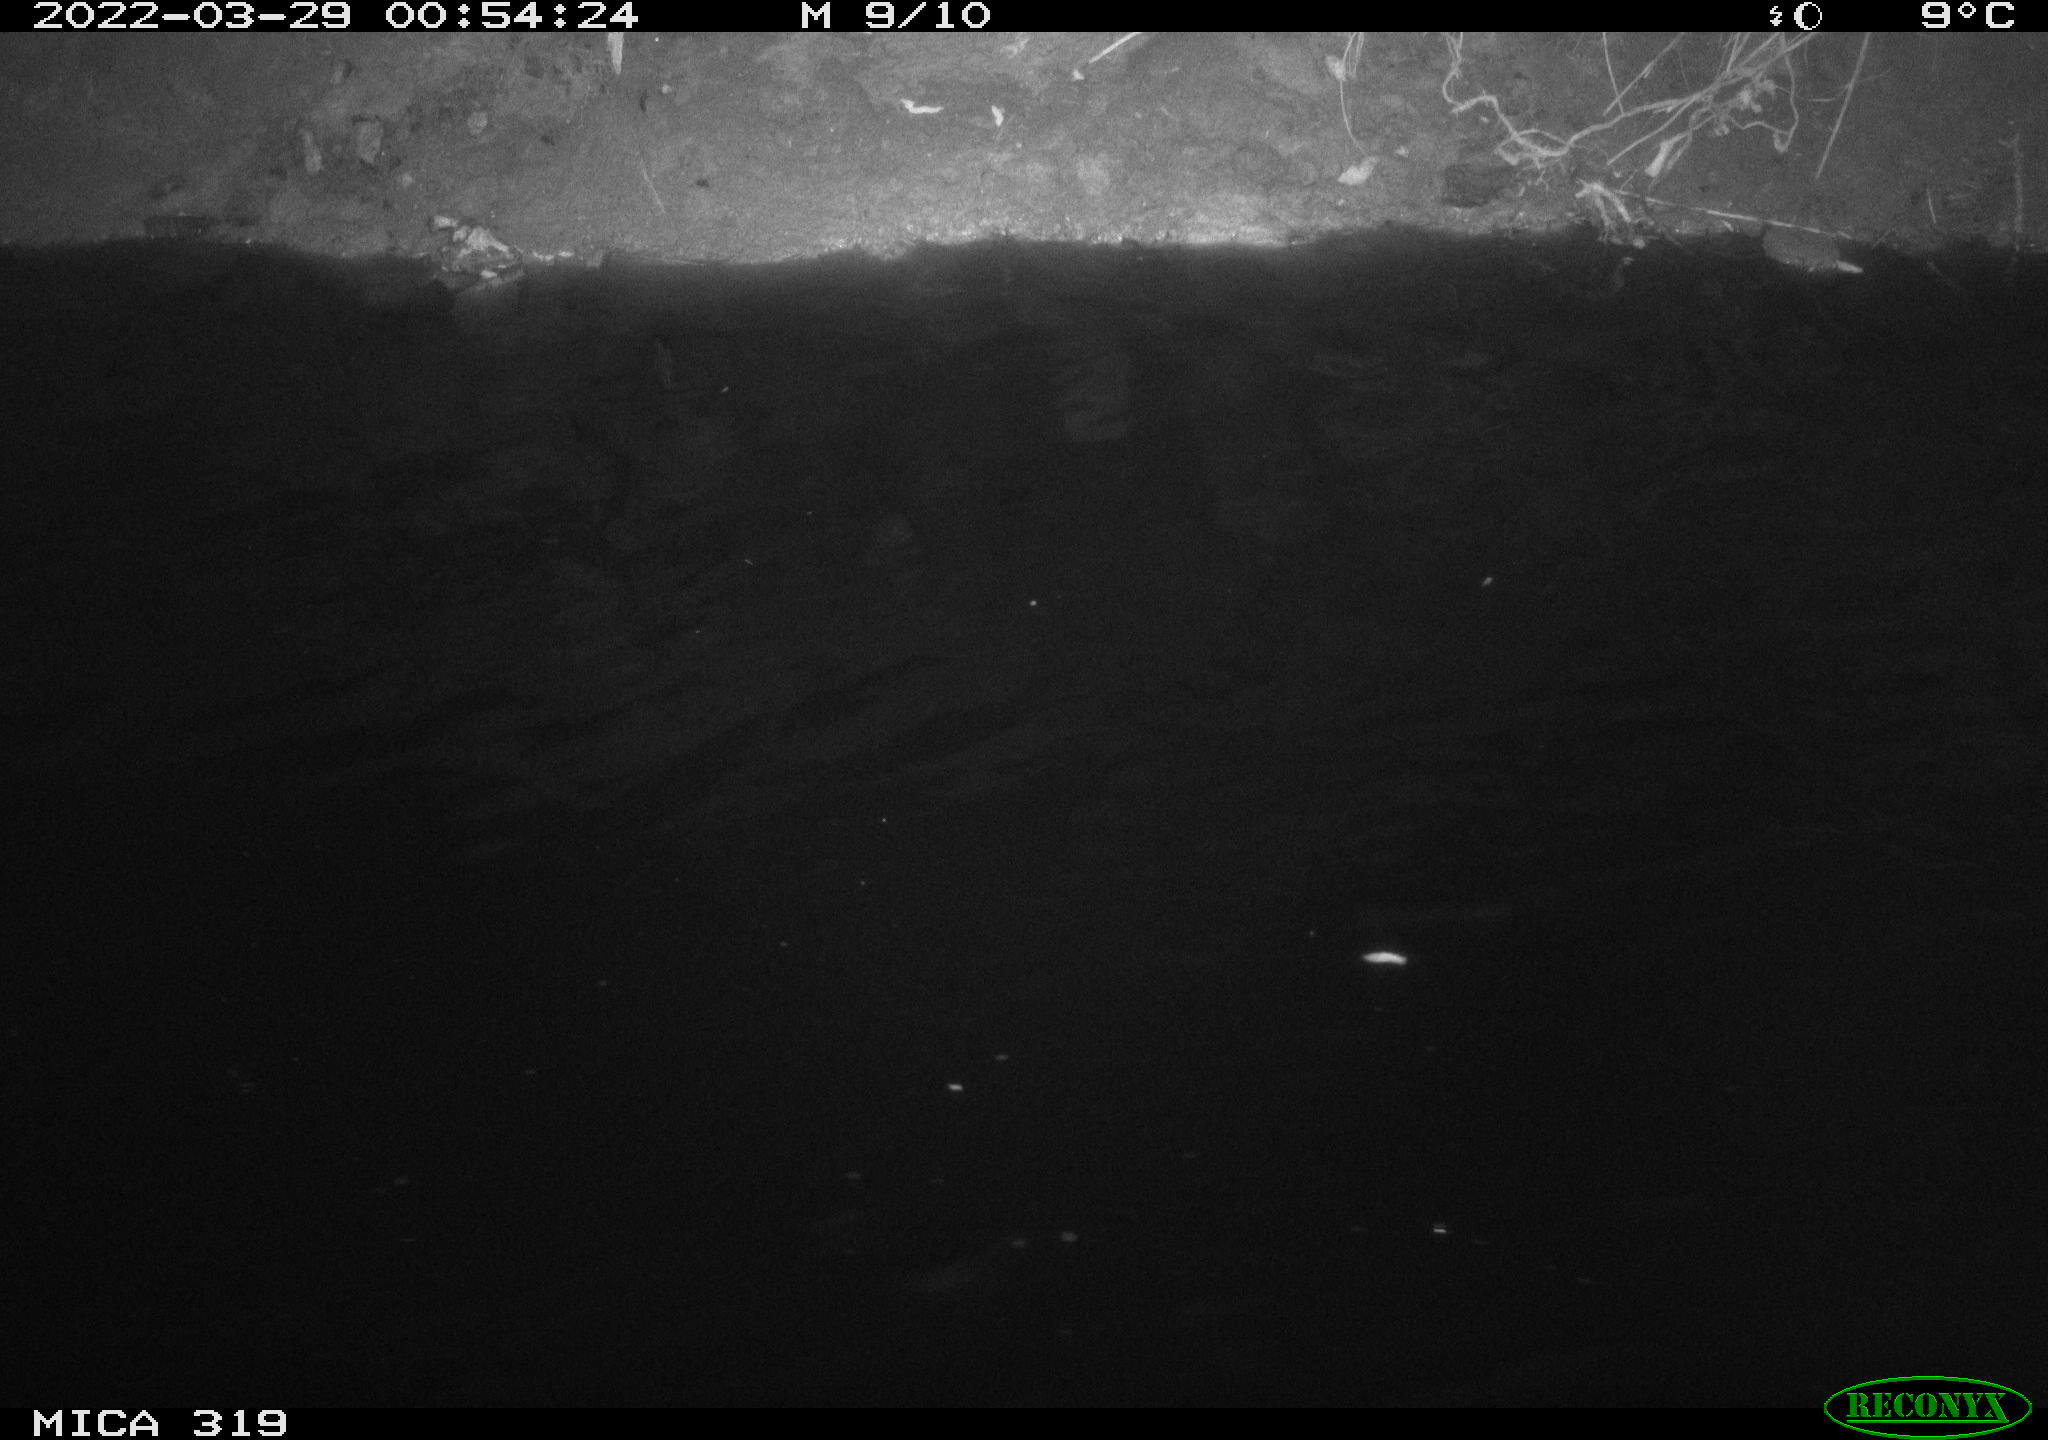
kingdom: Animalia
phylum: Chordata
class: Aves
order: Anseriformes
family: Anatidae
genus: Anas
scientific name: Anas platyrhynchos
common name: Mallard
